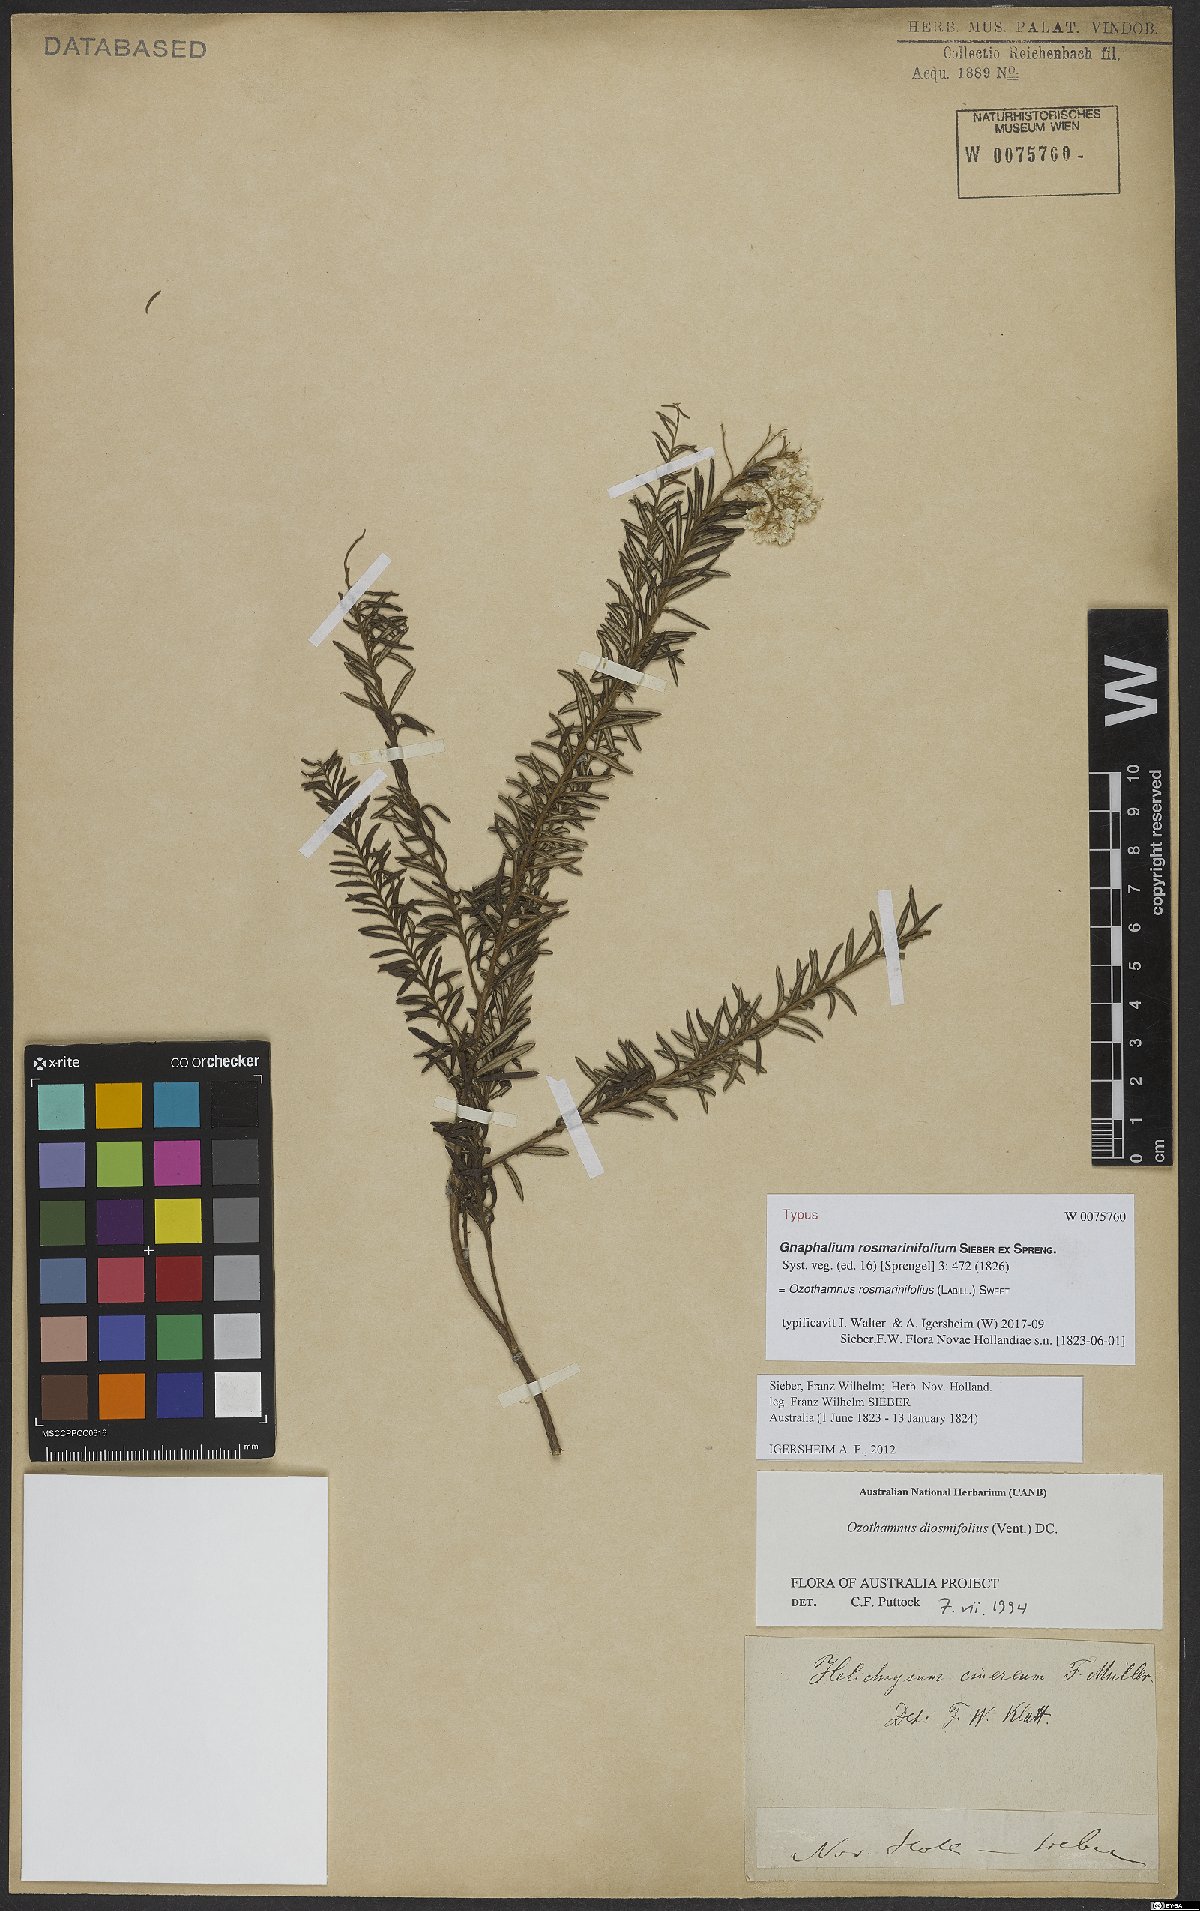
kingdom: Plantae
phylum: Tracheophyta
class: Magnoliopsida
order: Asterales
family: Asteraceae
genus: Ozothamnus
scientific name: Ozothamnus rosmarinifolius
